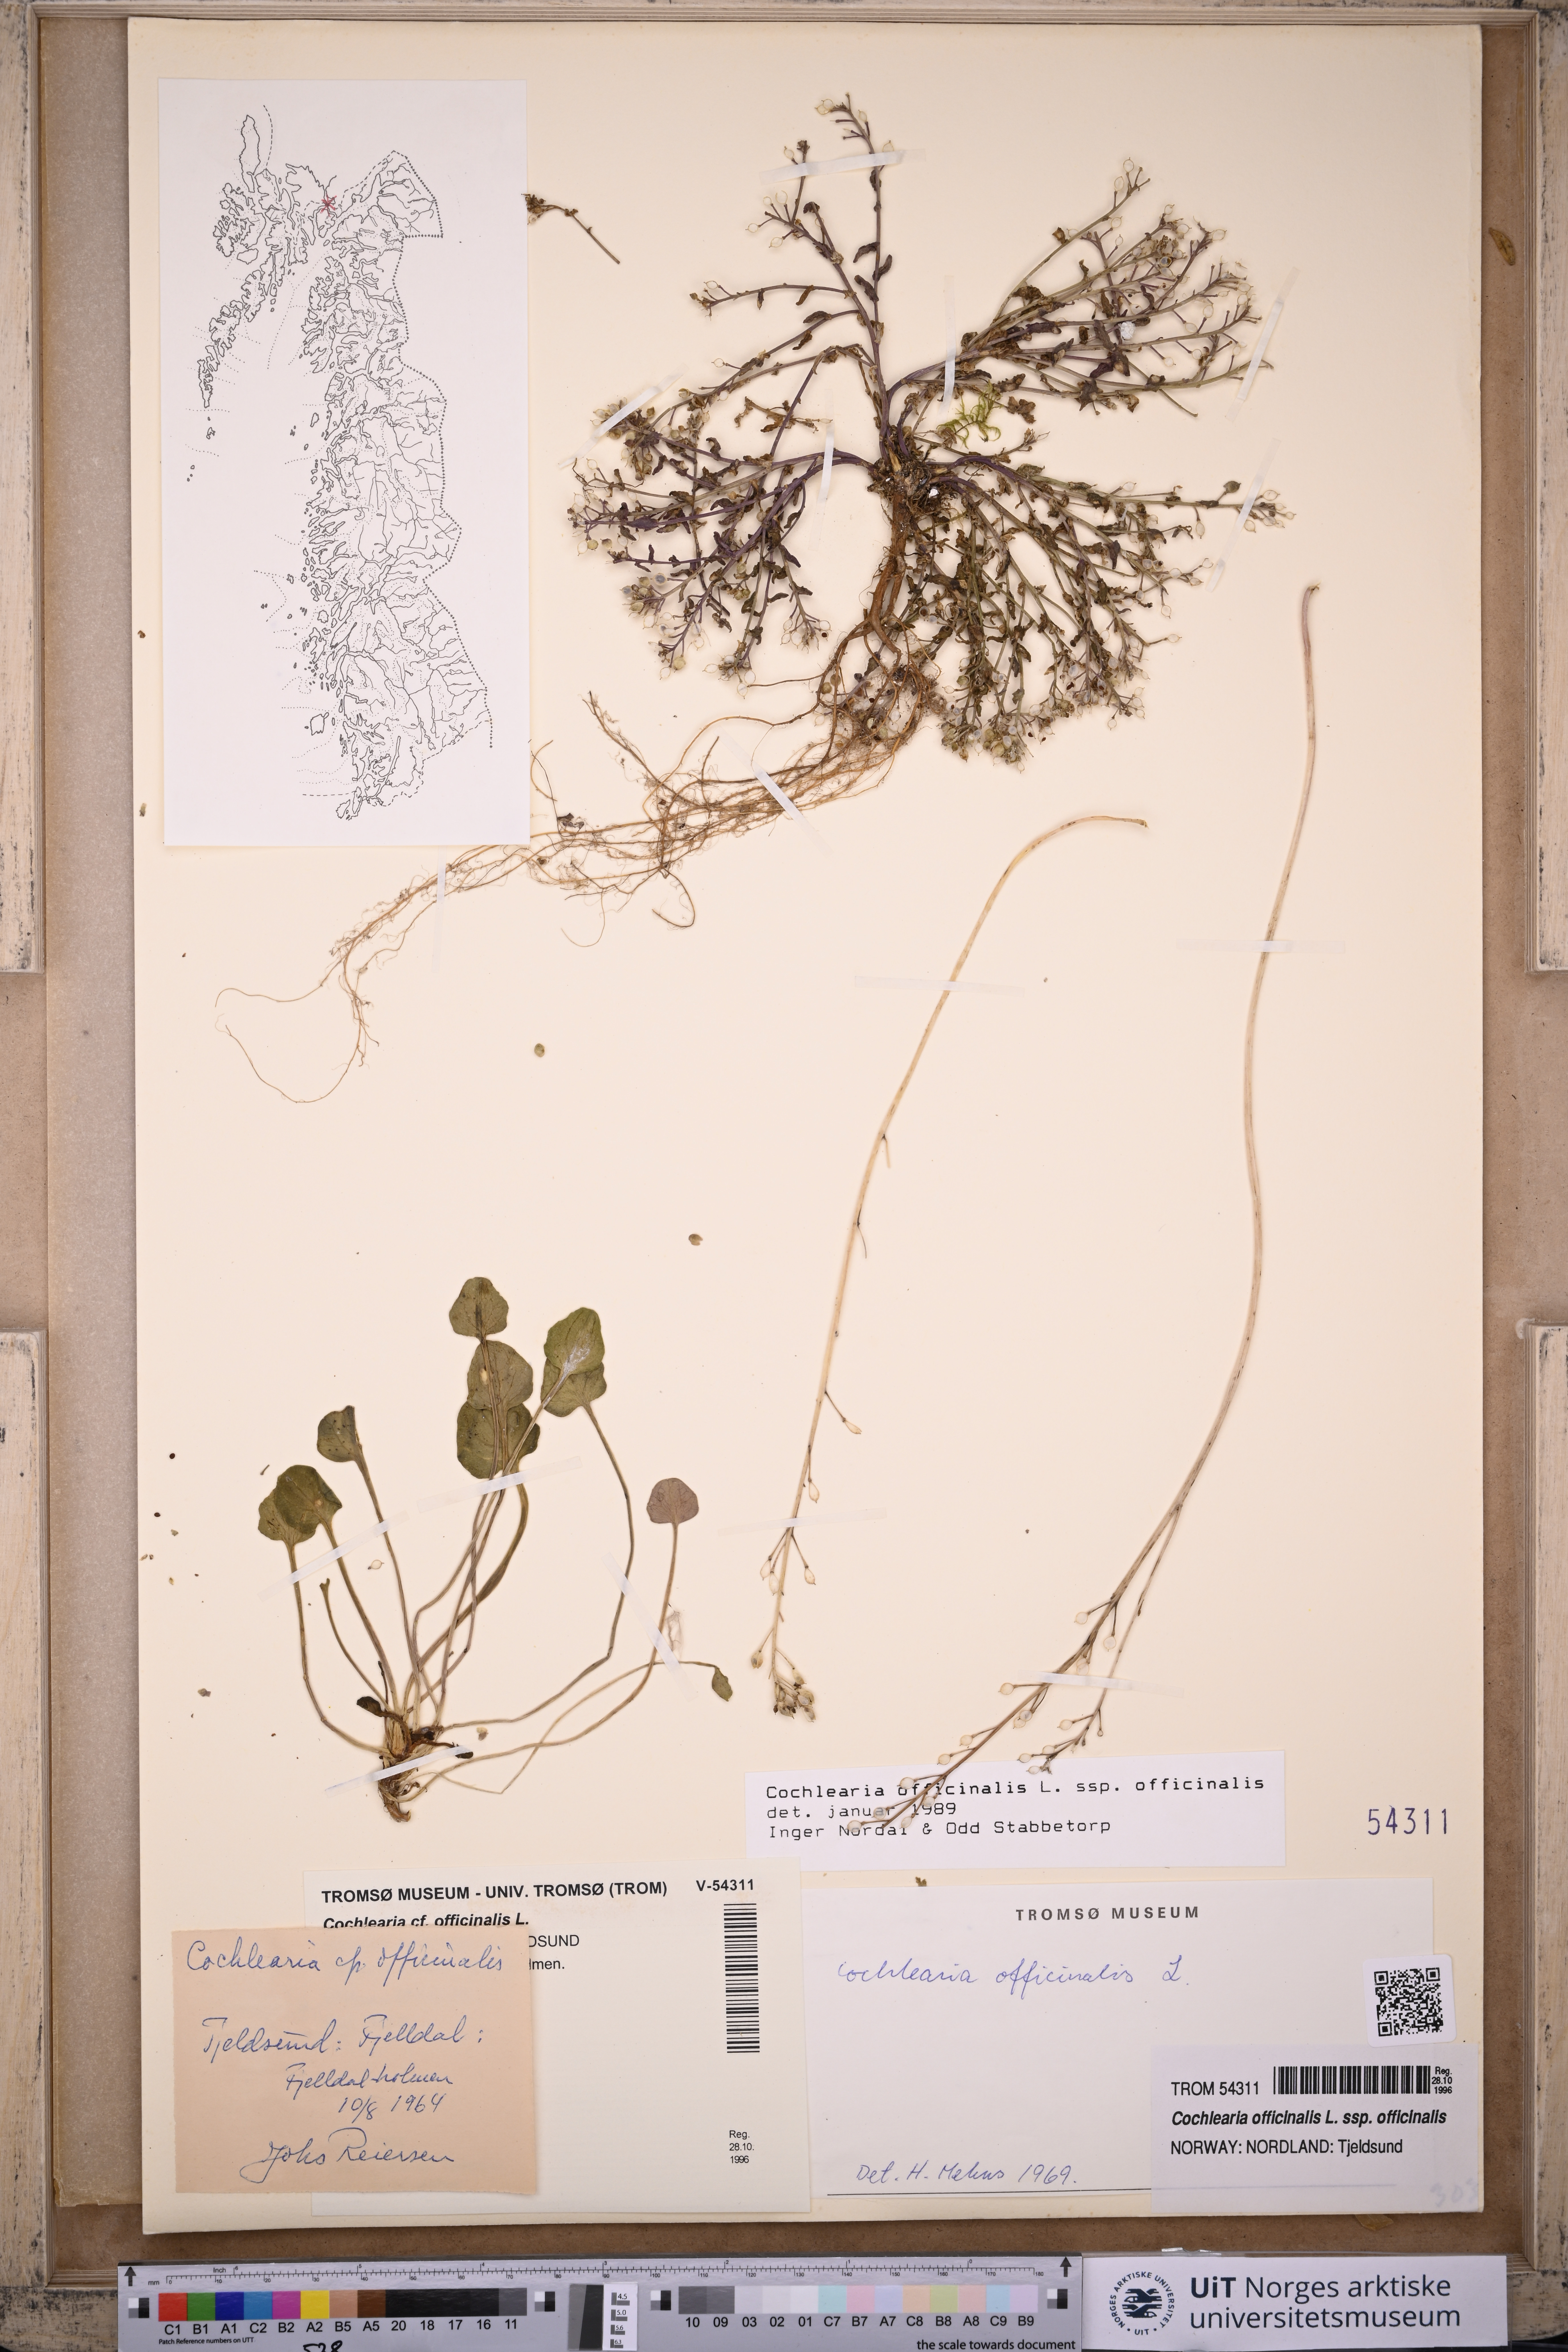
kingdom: Plantae
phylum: Tracheophyta
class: Magnoliopsida
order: Brassicales
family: Brassicaceae
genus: Cochlearia
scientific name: Cochlearia officinalis
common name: Scurvy-grass
